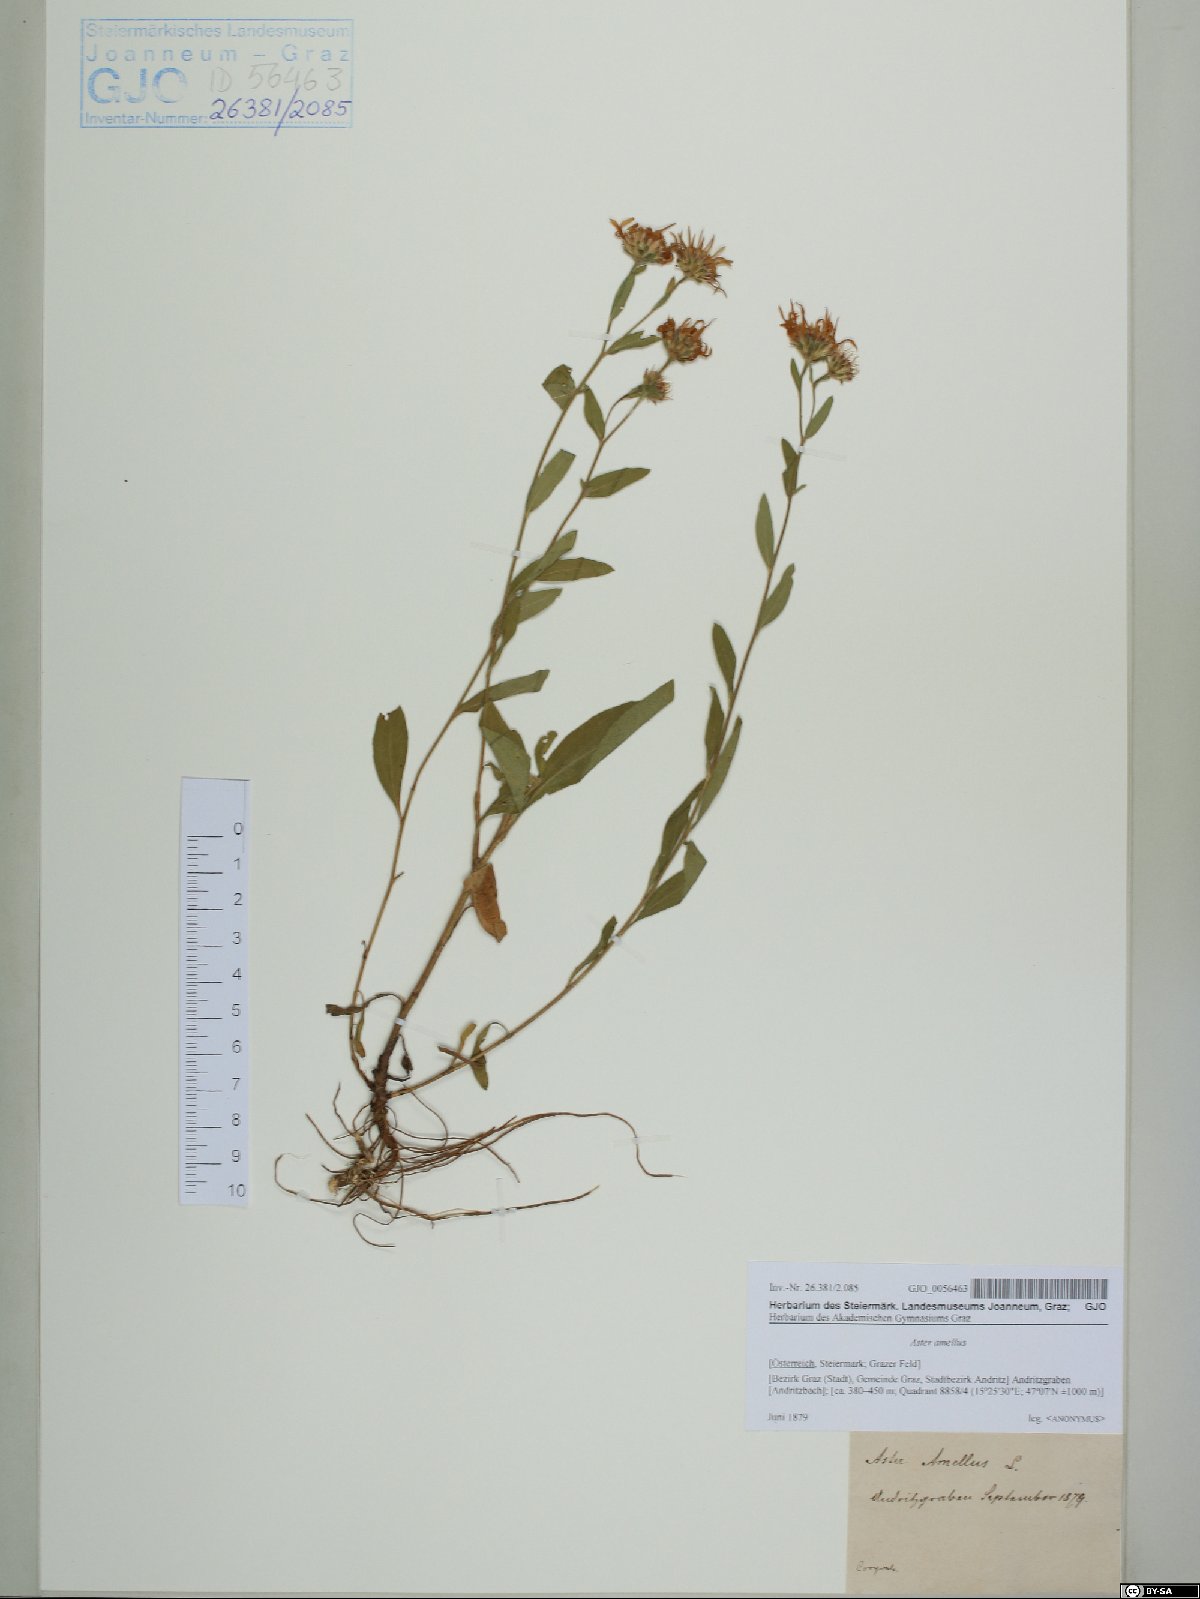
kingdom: Plantae
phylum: Tracheophyta
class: Magnoliopsida
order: Asterales
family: Asteraceae
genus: Aster
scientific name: Aster amellus
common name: European michaelmas daisy
